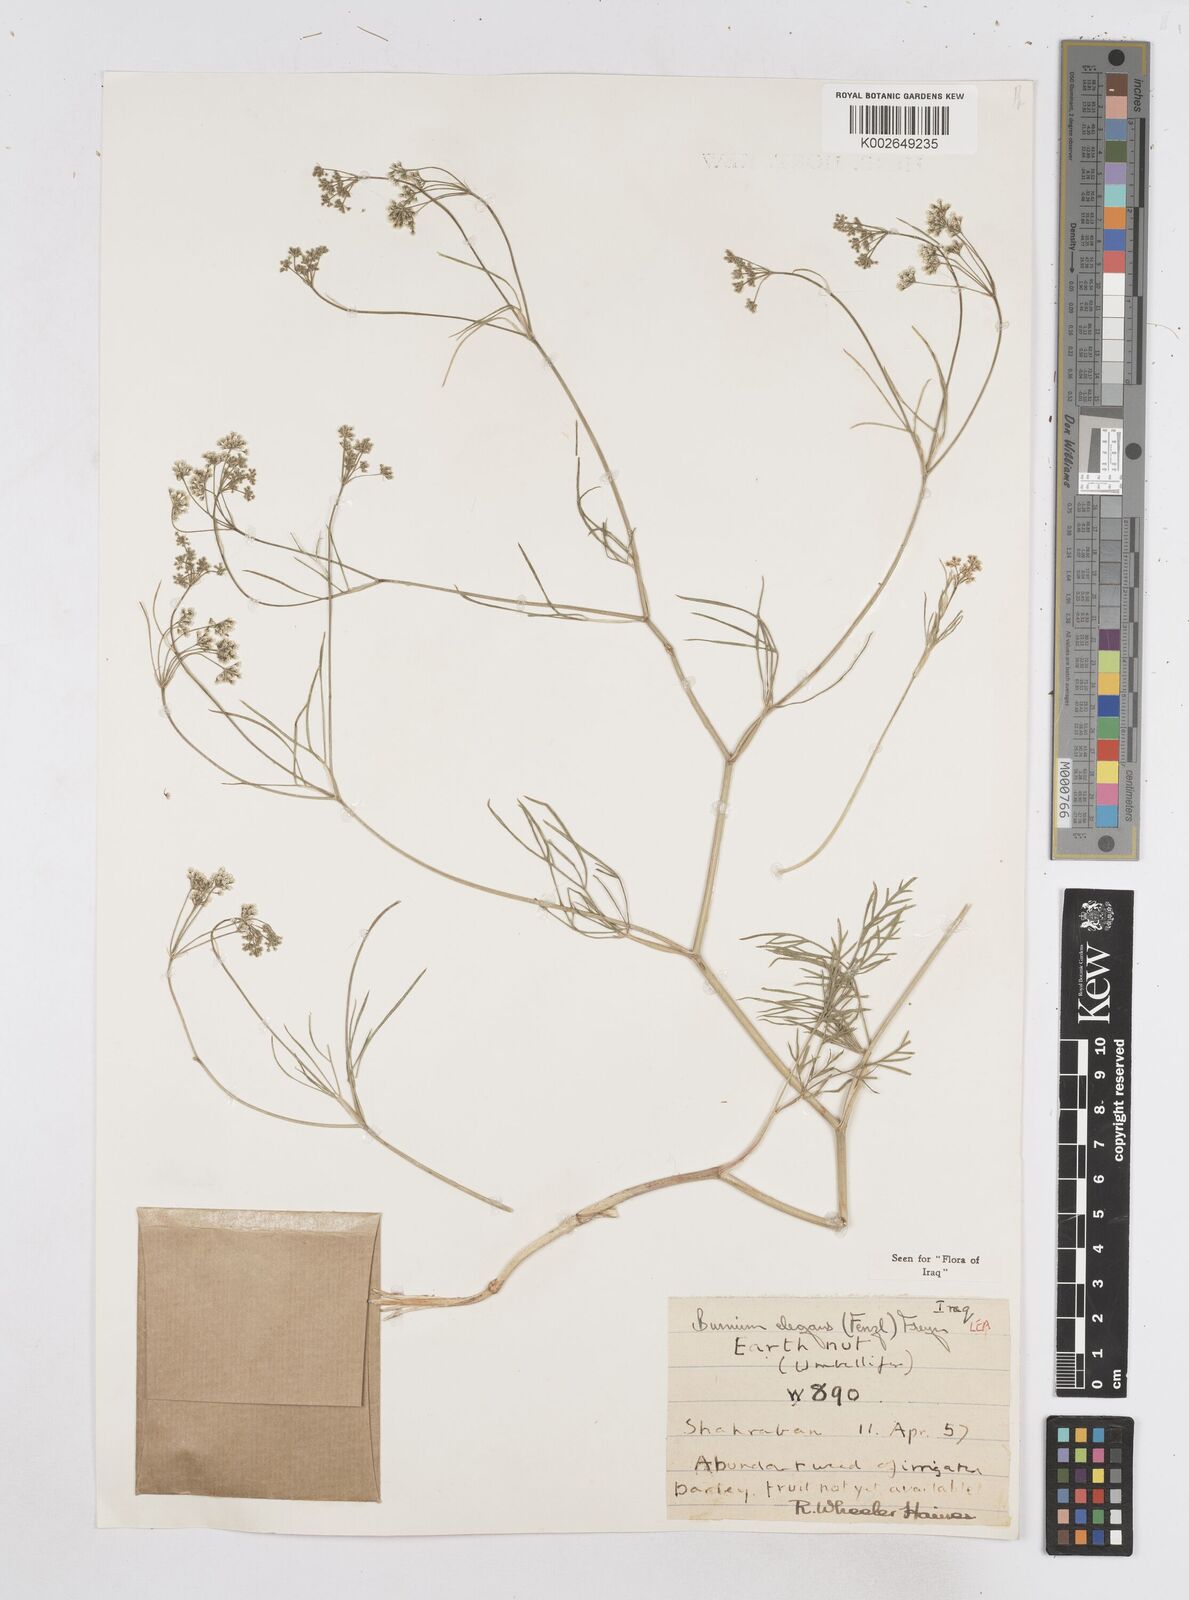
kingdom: Plantae
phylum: Tracheophyta
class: Magnoliopsida
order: Apiales
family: Apiaceae
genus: Bunium
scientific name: Bunium paucifolium
